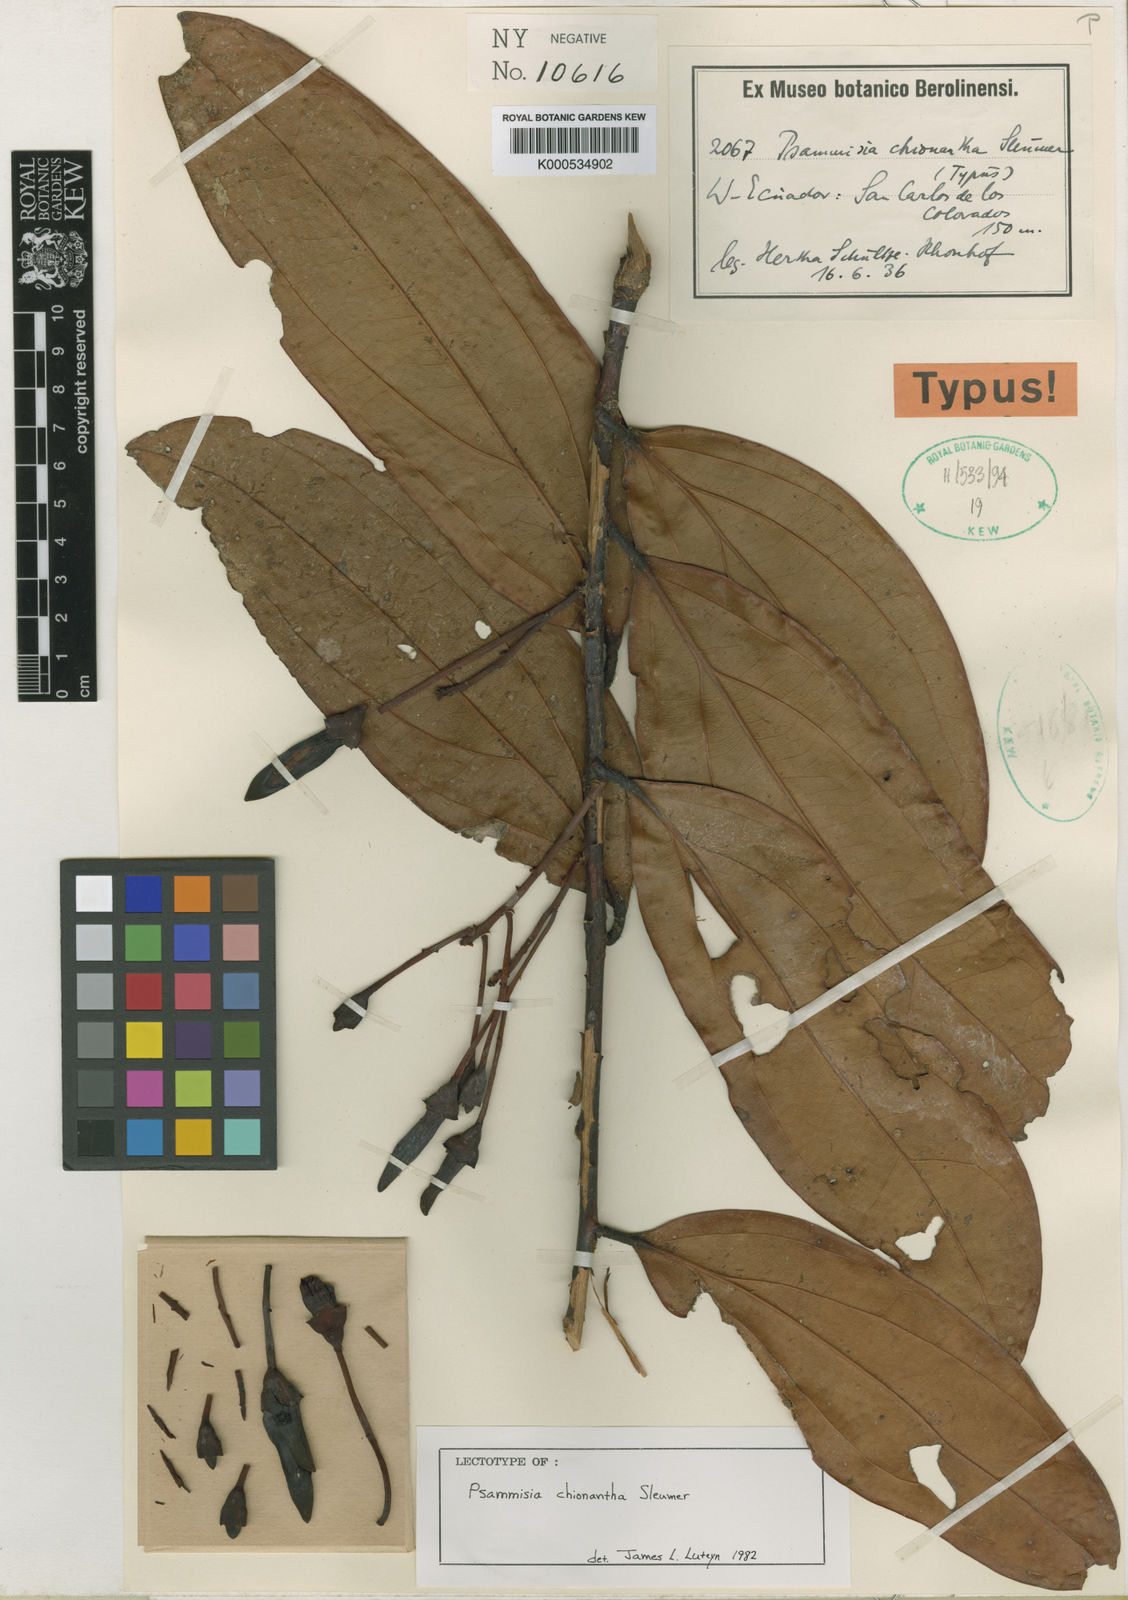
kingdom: Plantae
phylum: Tracheophyta
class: Magnoliopsida
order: Ericales
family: Ericaceae
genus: Psammisia
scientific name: Psammisia chionantha
